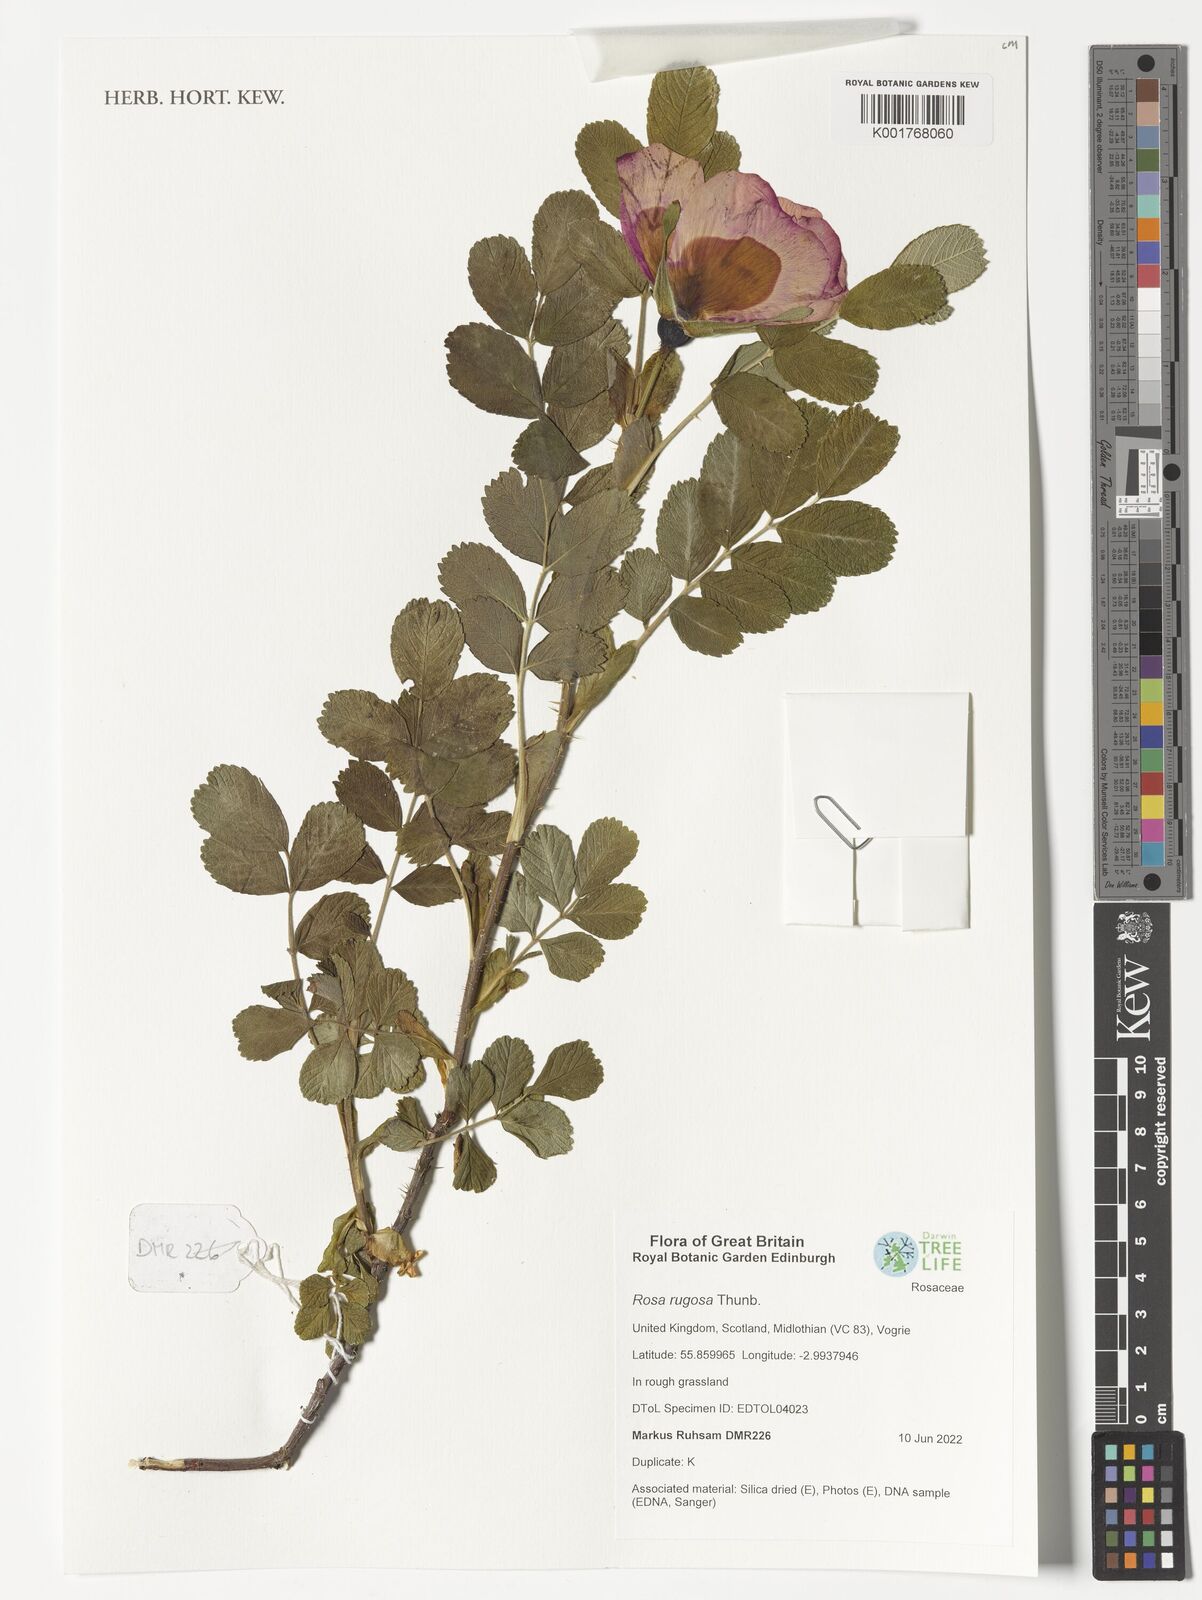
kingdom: Plantae
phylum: Tracheophyta
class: Magnoliopsida
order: Rosales
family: Rosaceae
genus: Rosa
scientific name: Rosa rugosa
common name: Japanese rose
